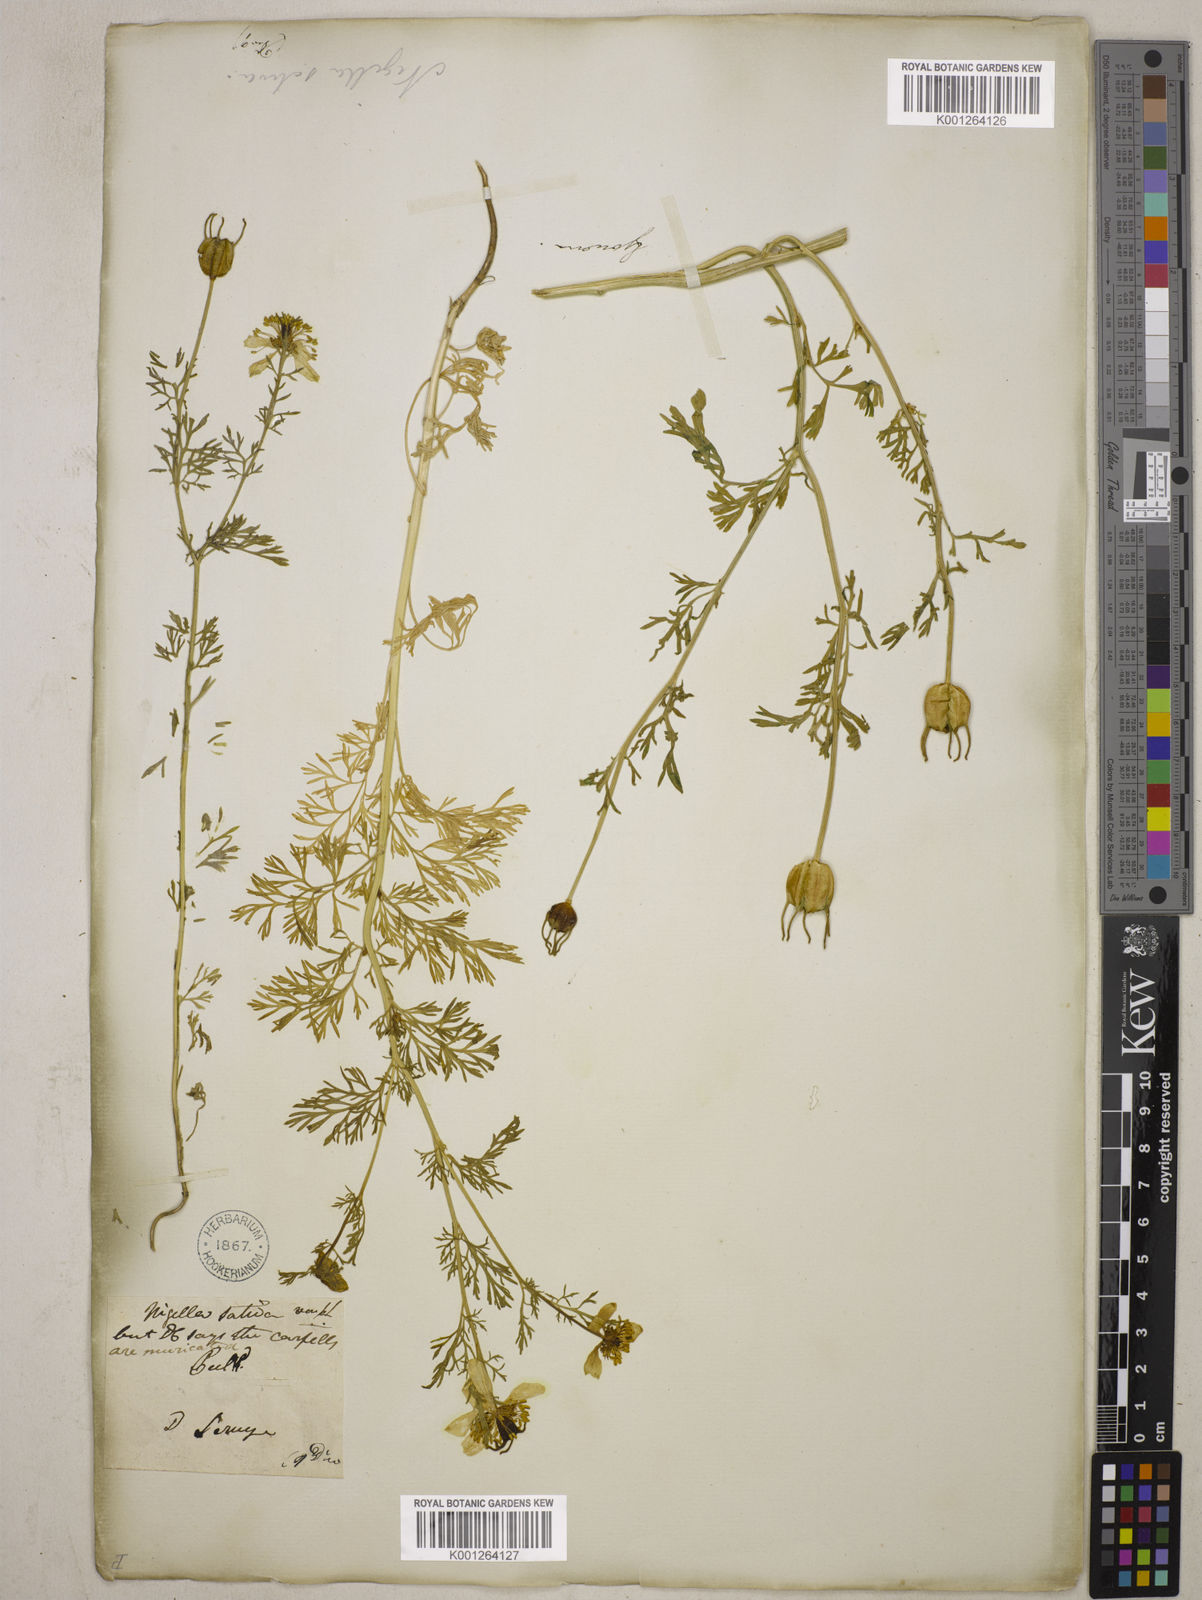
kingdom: Plantae
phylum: Tracheophyta
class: Magnoliopsida
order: Ranunculales
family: Ranunculaceae
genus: Nigella
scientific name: Nigella sativa
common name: Black-cumin
